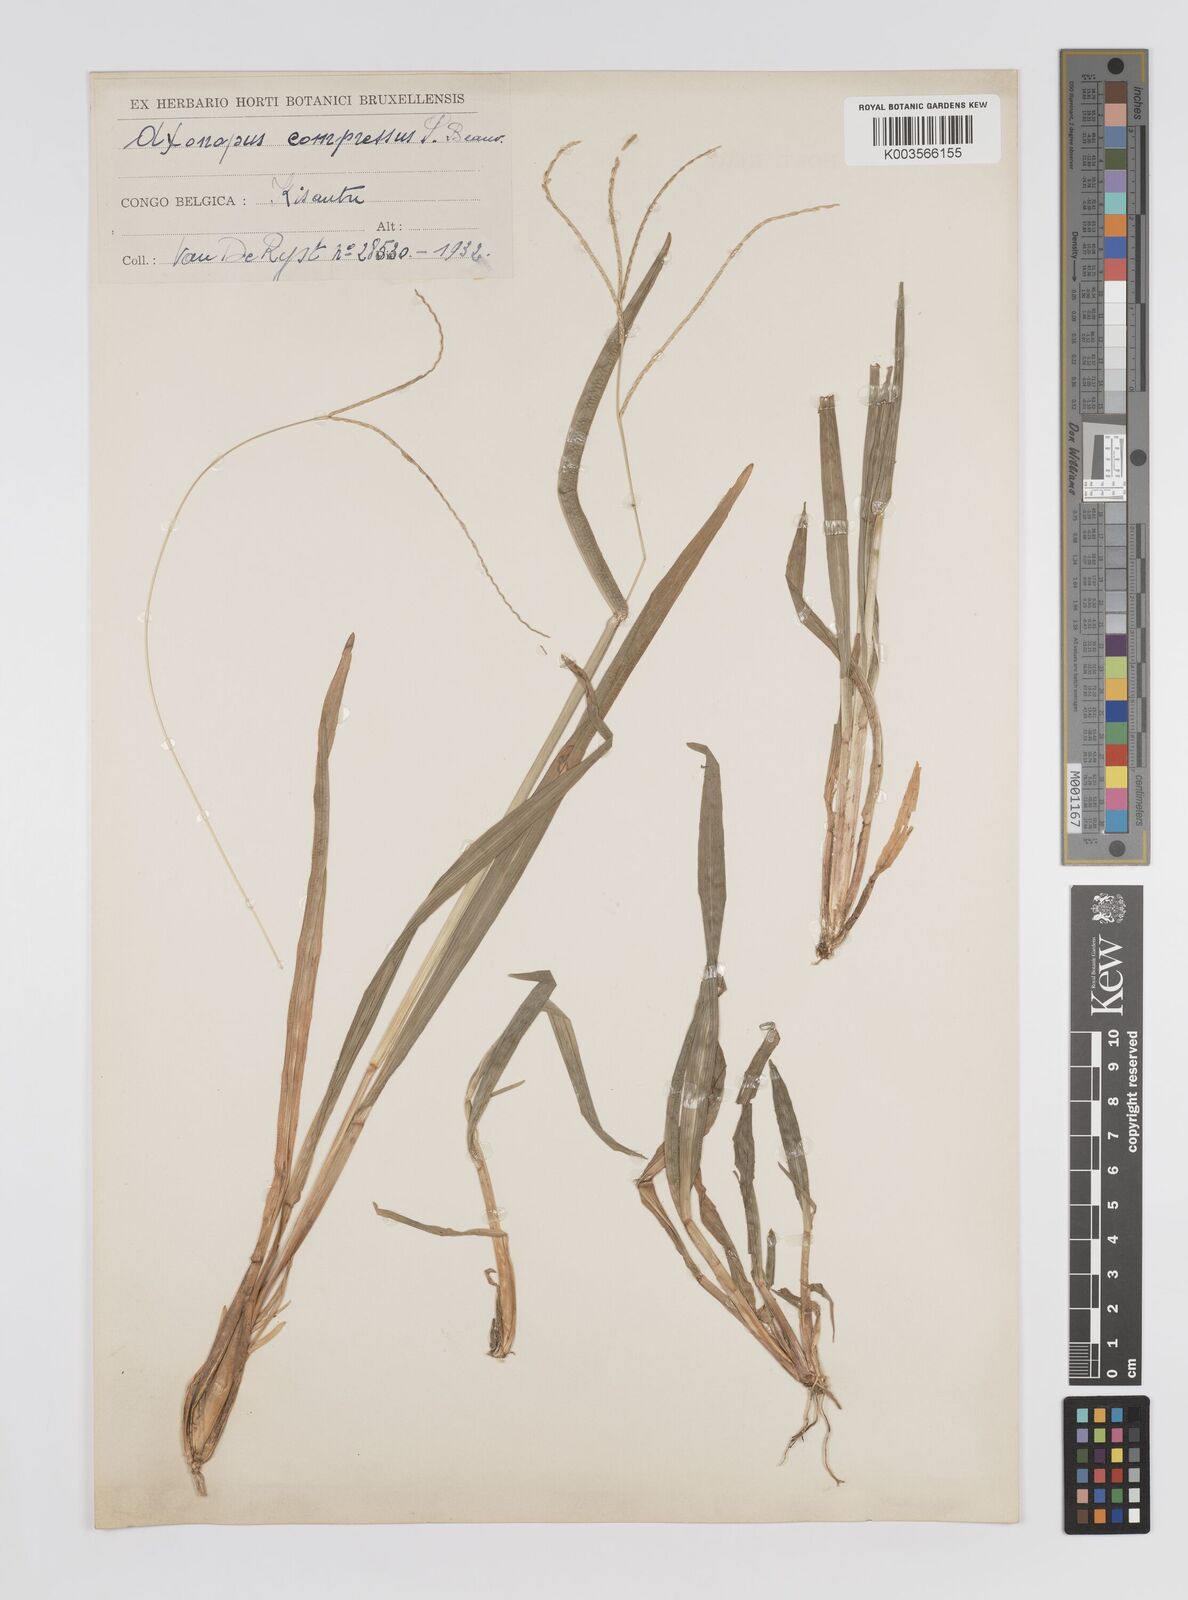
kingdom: Plantae
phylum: Tracheophyta
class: Liliopsida
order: Poales
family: Poaceae
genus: Axonopus
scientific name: Axonopus compressus
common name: American carpet grass
